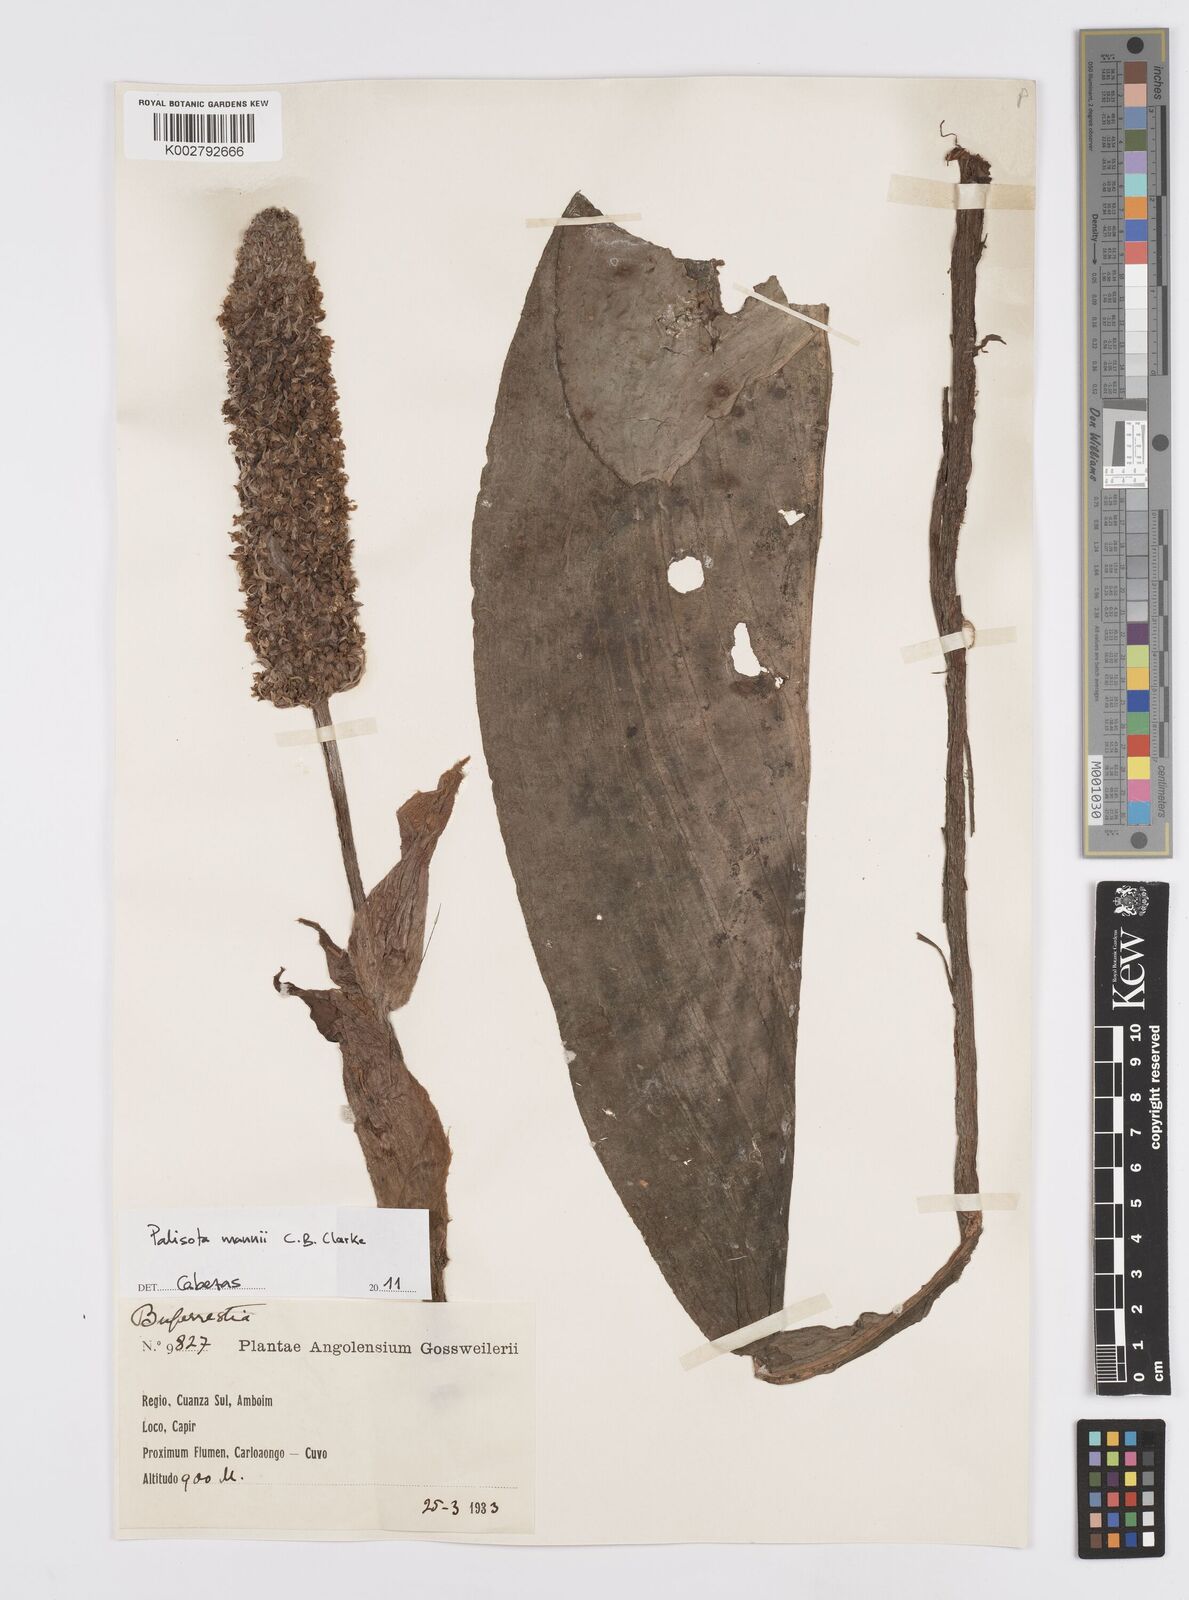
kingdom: Plantae
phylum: Tracheophyta
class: Liliopsida
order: Commelinales
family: Commelinaceae
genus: Palisota
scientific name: Palisota mannii
